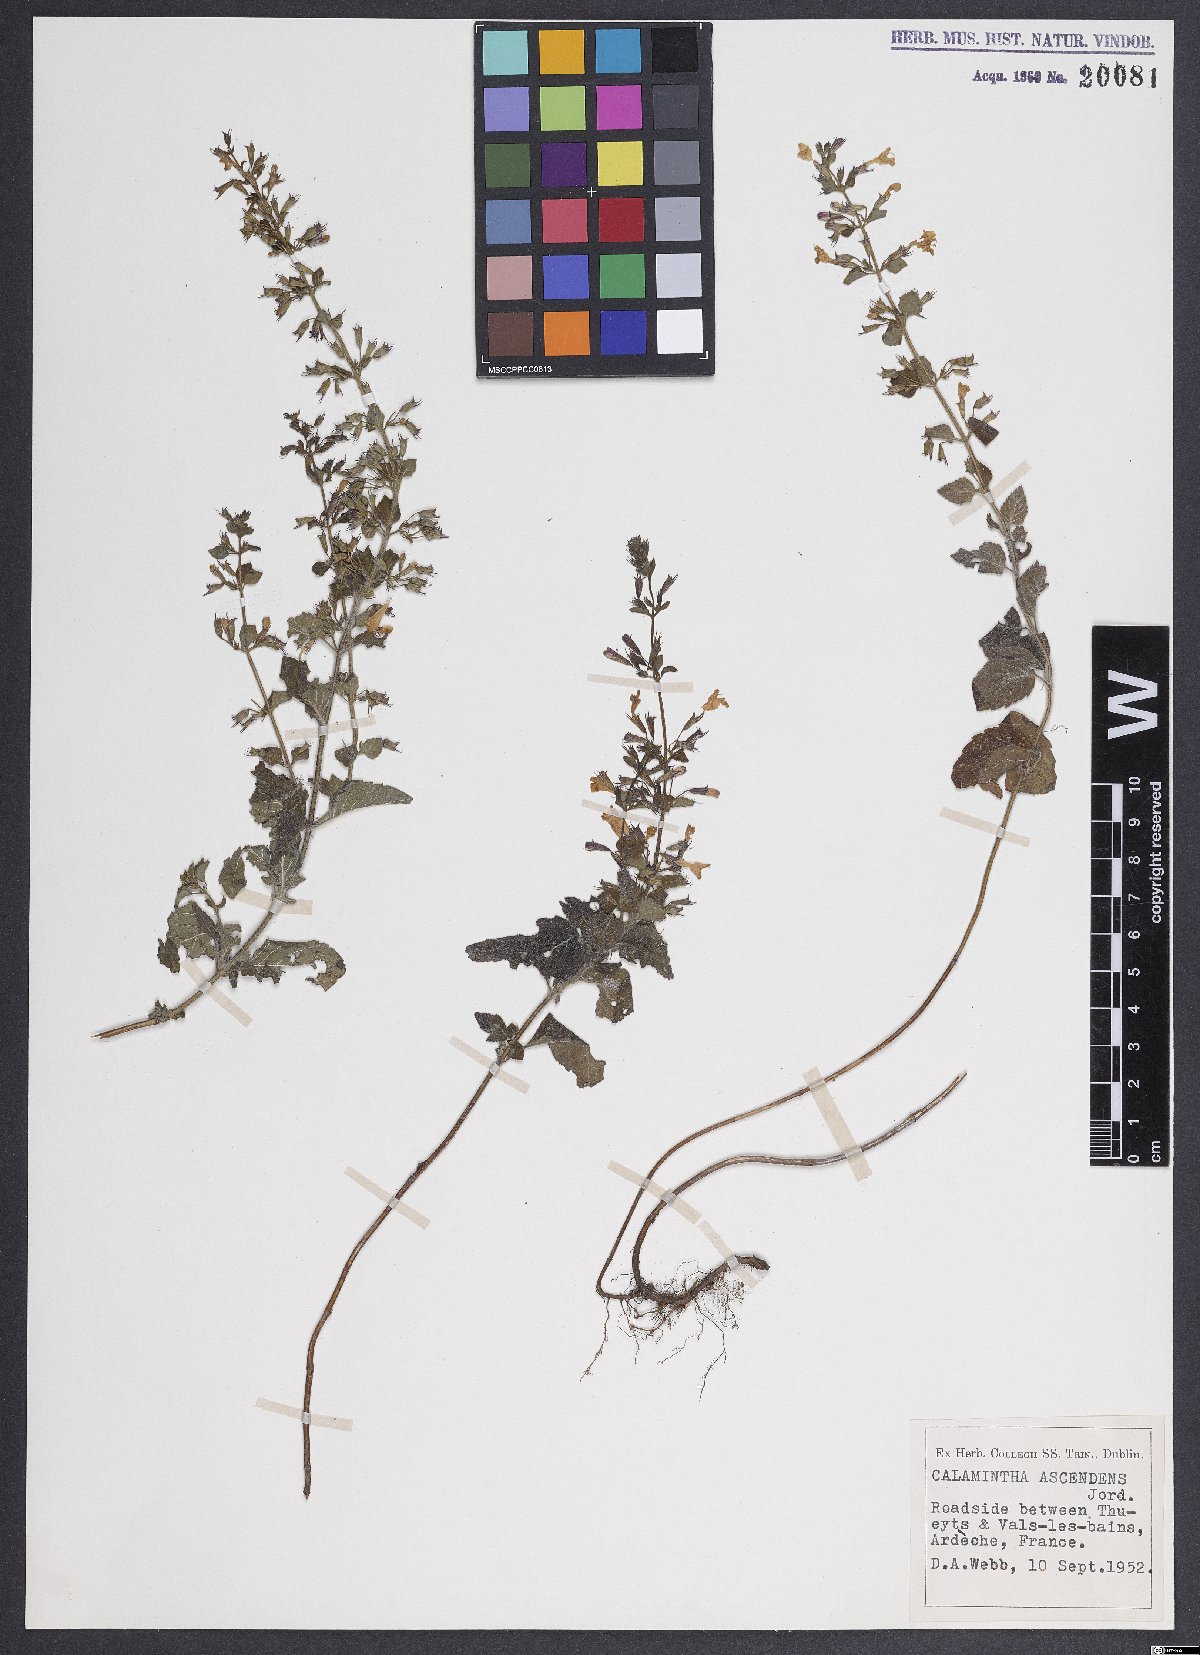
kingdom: Plantae
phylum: Tracheophyta
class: Magnoliopsida
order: Lamiales
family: Lamiaceae
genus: Clinopodium
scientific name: Clinopodium menthifolium
